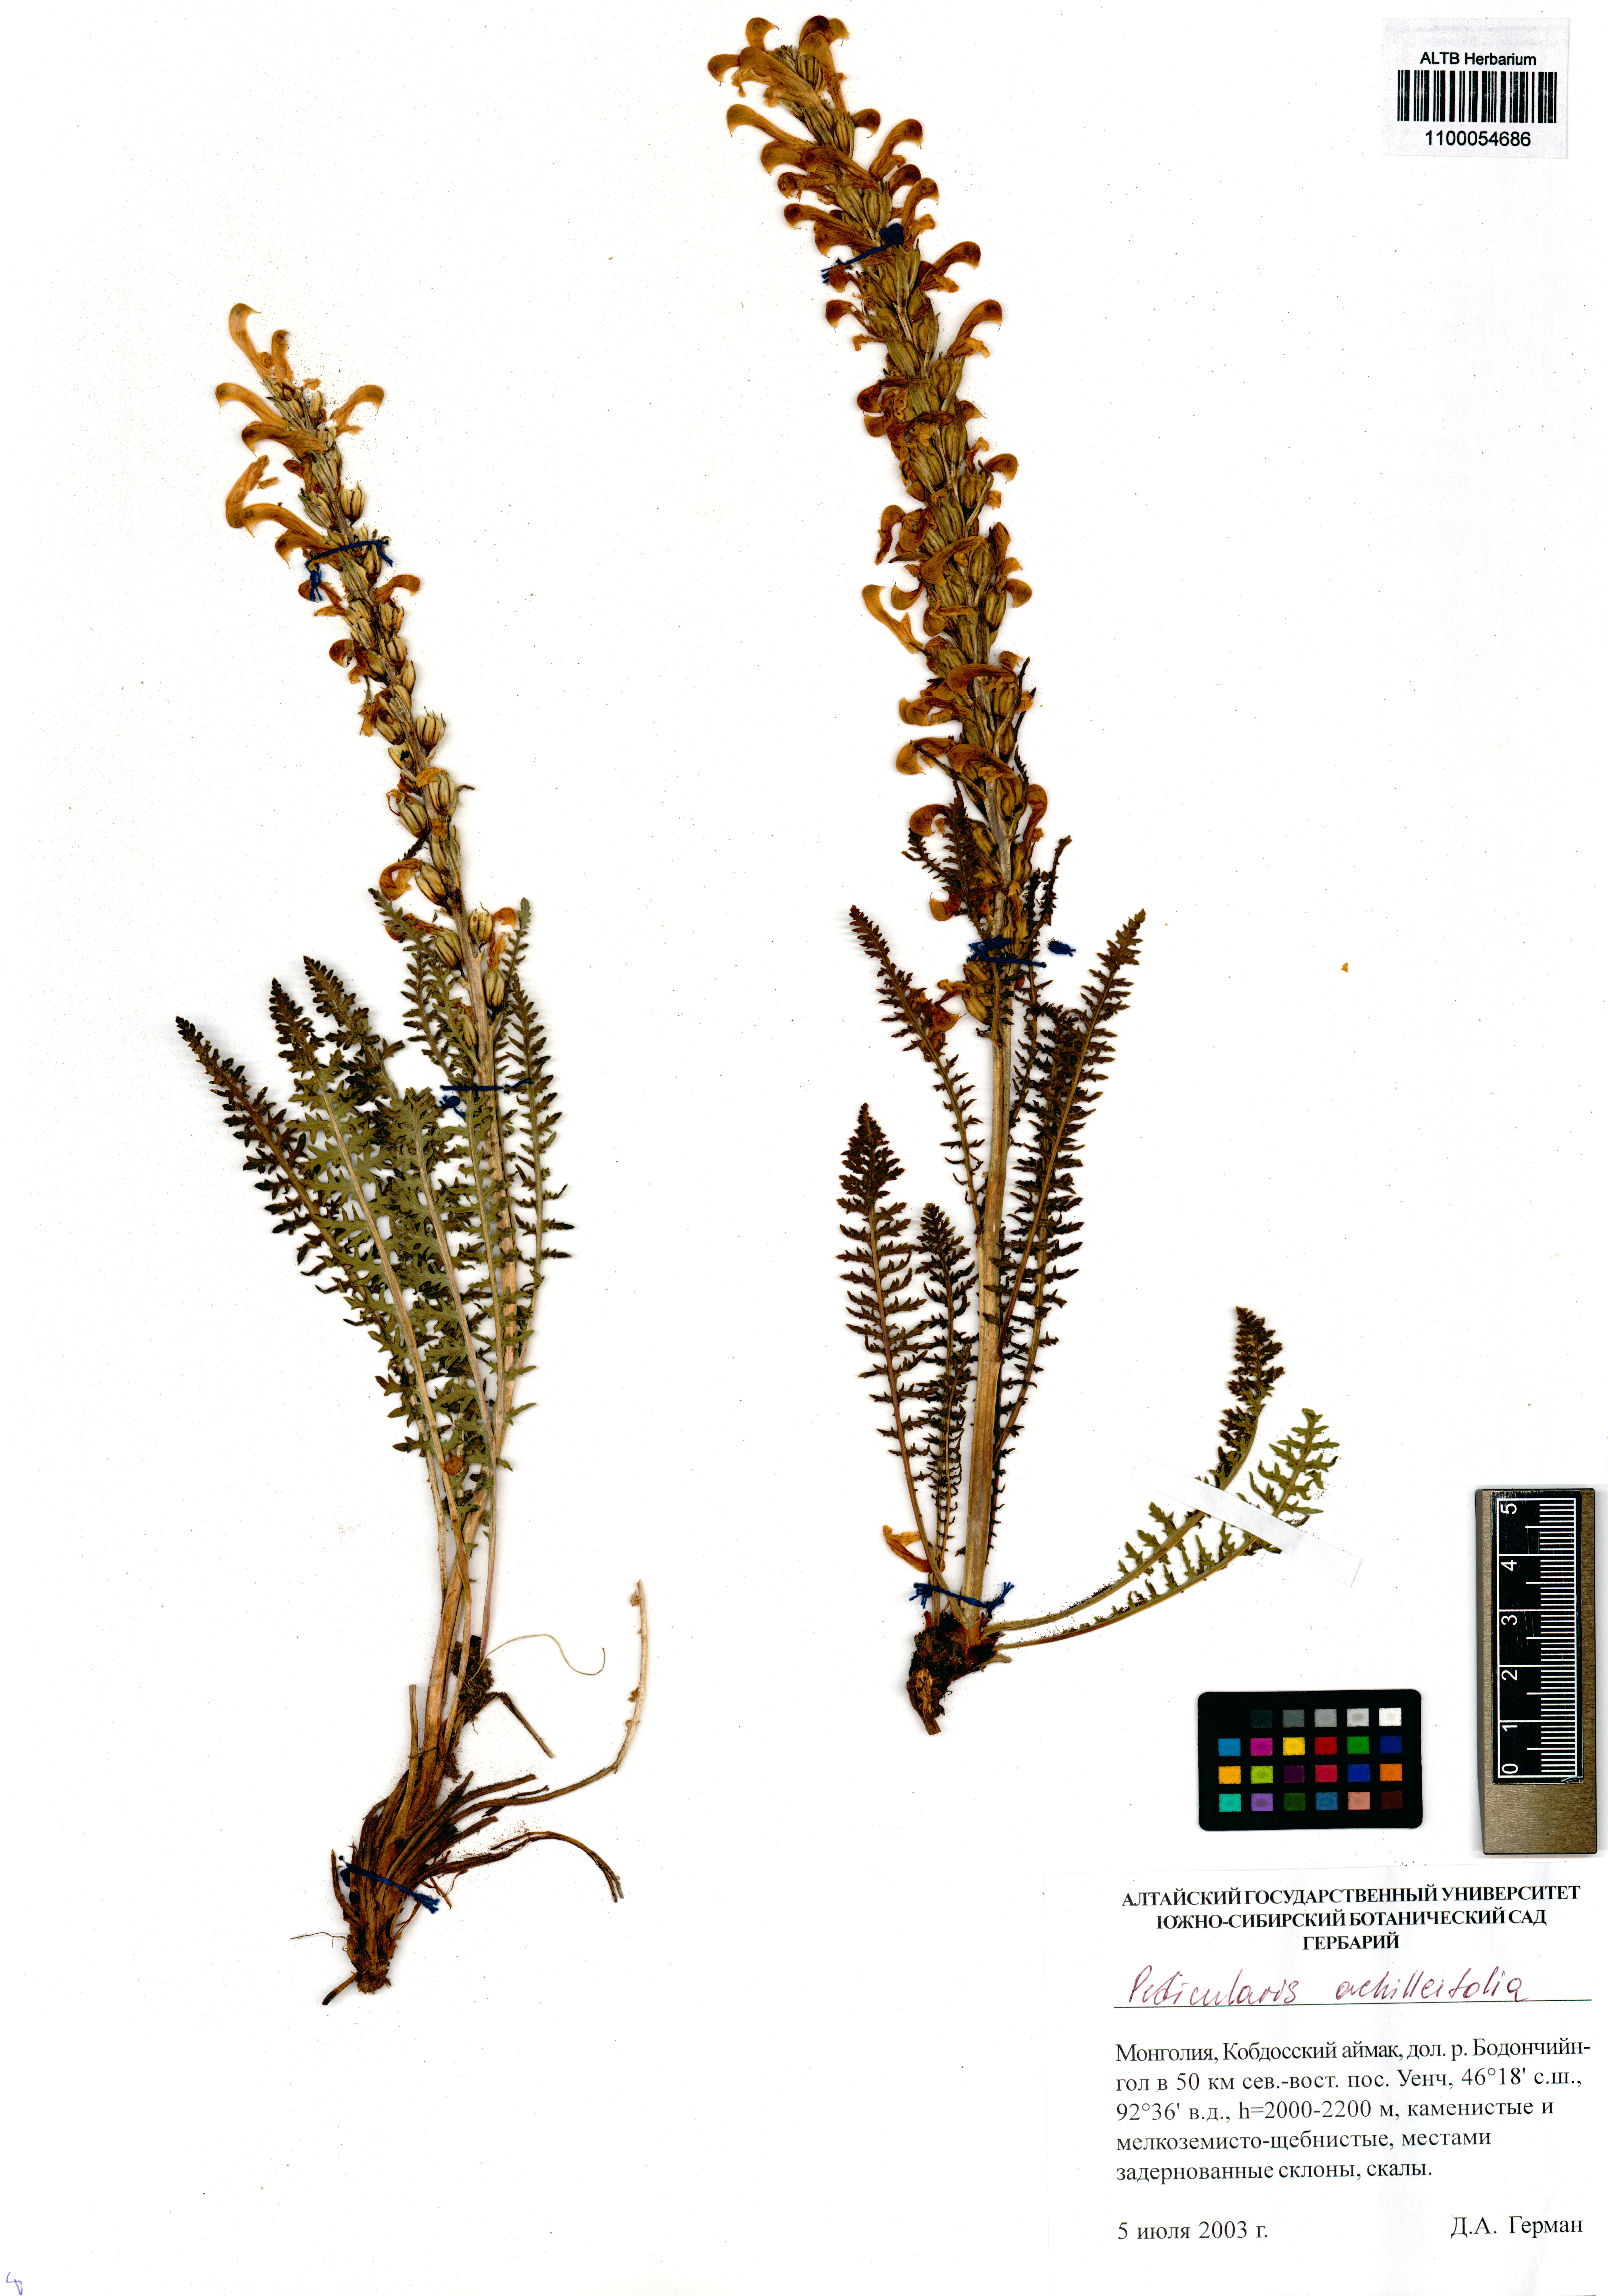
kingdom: Plantae
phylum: Tracheophyta
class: Magnoliopsida
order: Lamiales
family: Orobanchaceae
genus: Pedicularis
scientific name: Pedicularis achilleifolia
